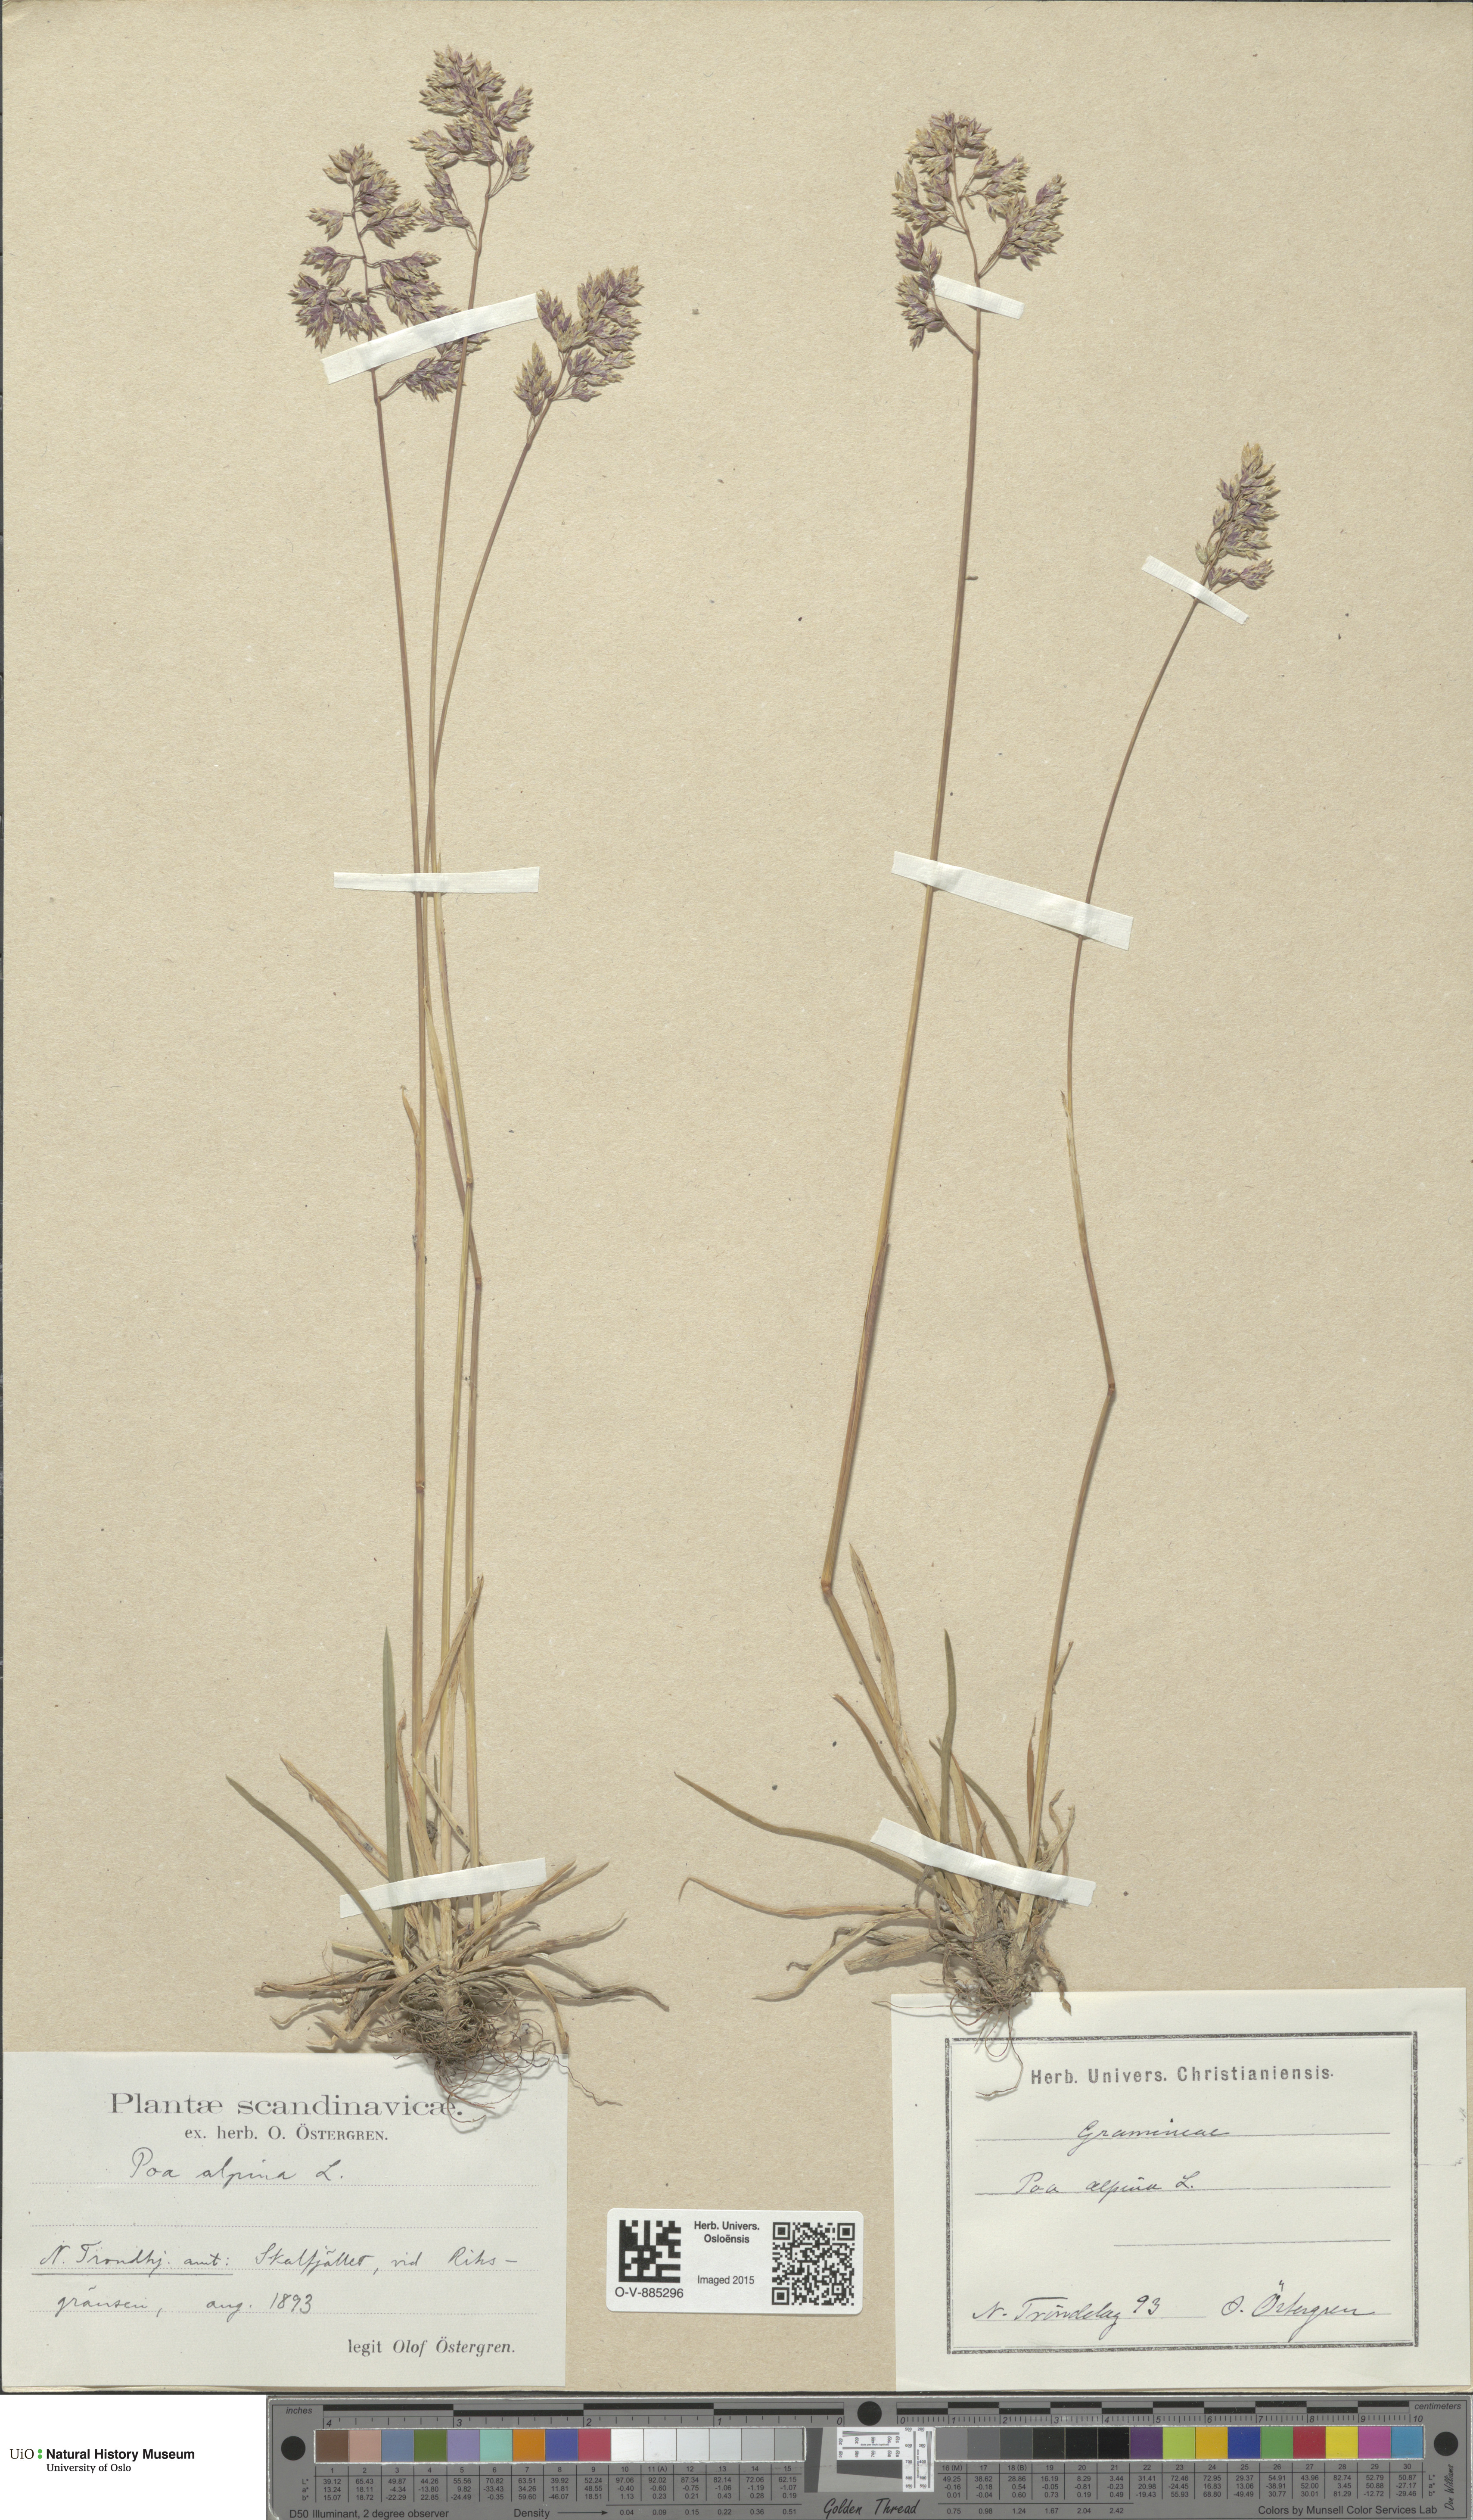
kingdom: Plantae
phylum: Tracheophyta
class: Liliopsida
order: Poales
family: Poaceae
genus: Poa
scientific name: Poa alpina
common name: Alpine bluegrass
